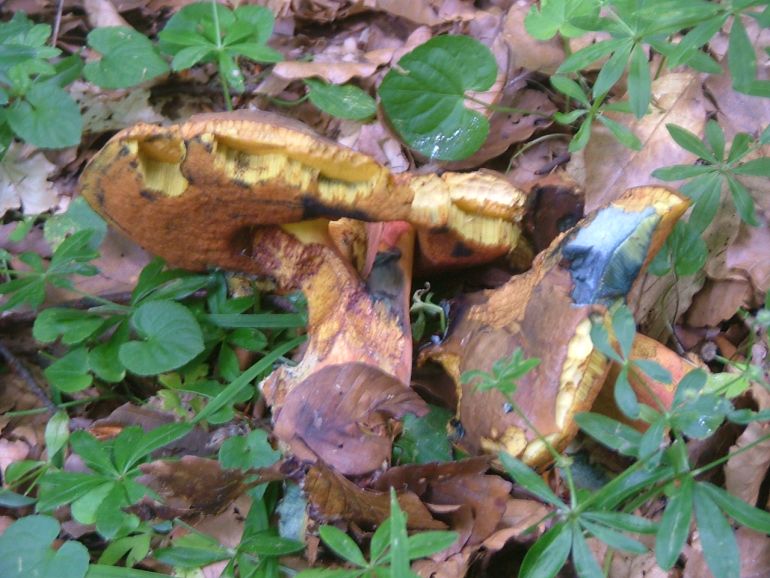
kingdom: Fungi
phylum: Basidiomycota
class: Agaricomycetes
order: Boletales
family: Boletaceae
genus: Neoboletus
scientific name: Neoboletus erythropus
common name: punktstokket indigorørhat
